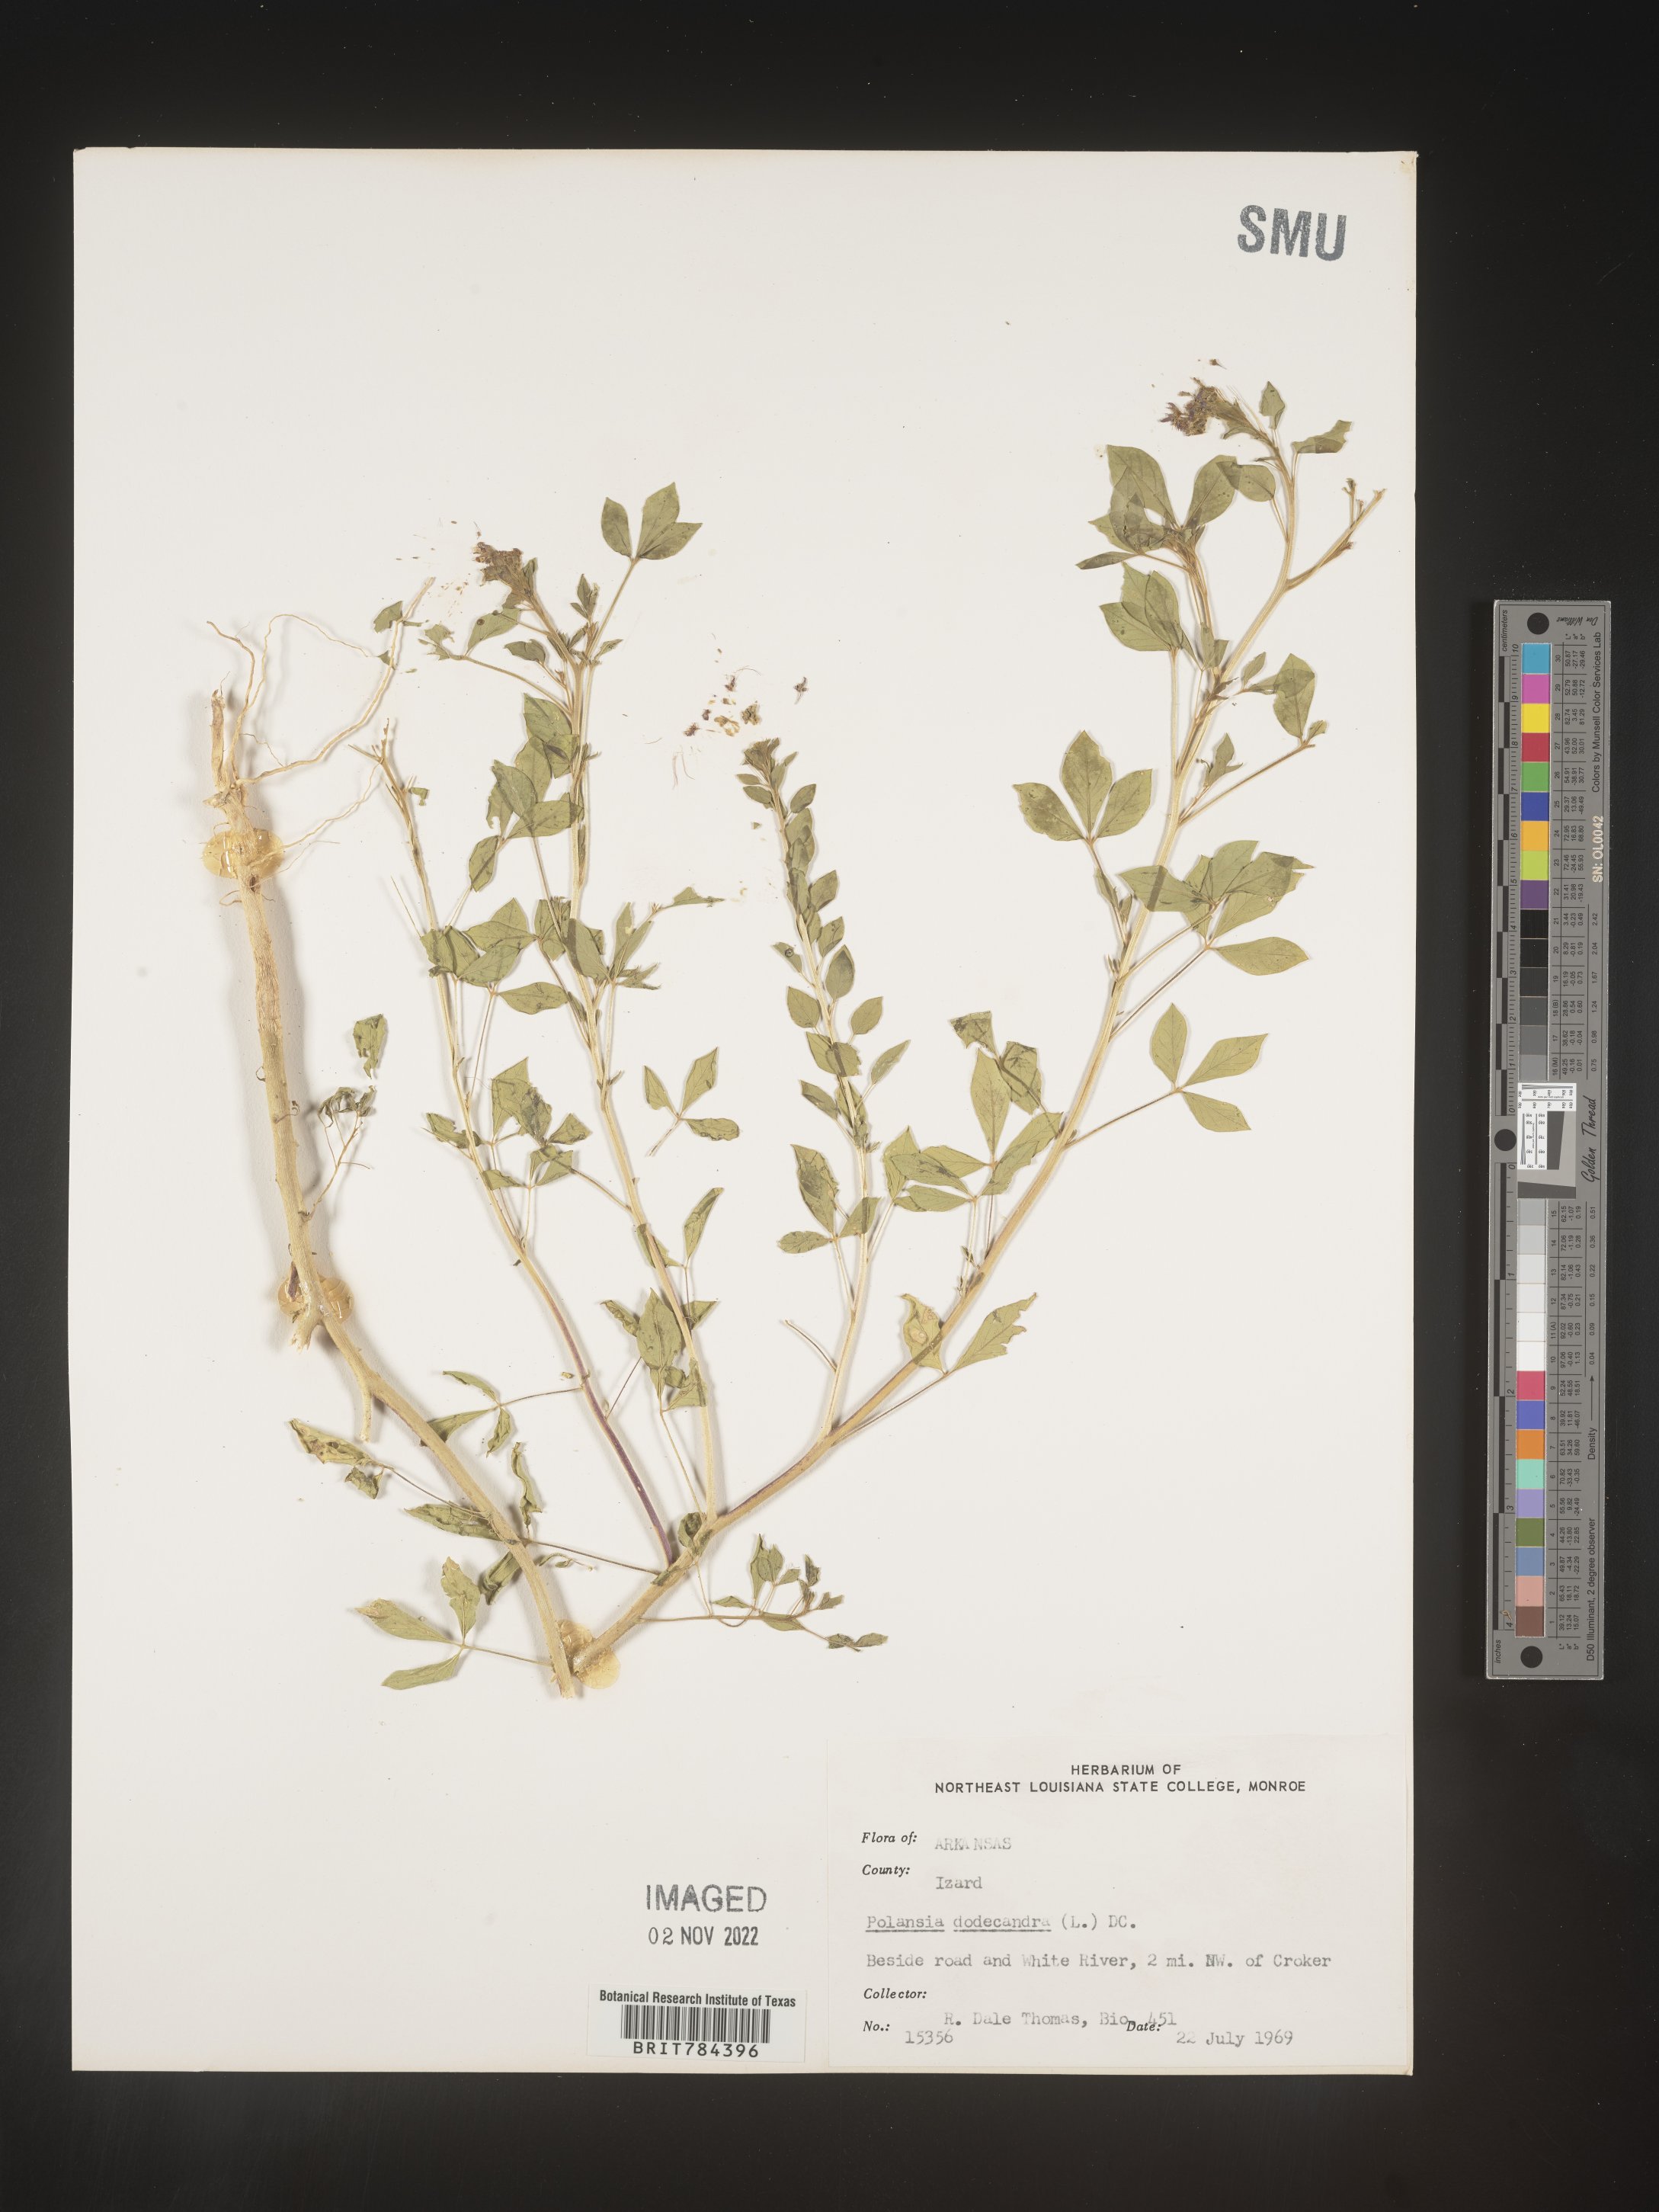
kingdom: Plantae
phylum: Tracheophyta
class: Magnoliopsida
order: Brassicales
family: Cleomaceae
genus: Polanisia
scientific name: Polanisia dodecandra
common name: Clammyweed
